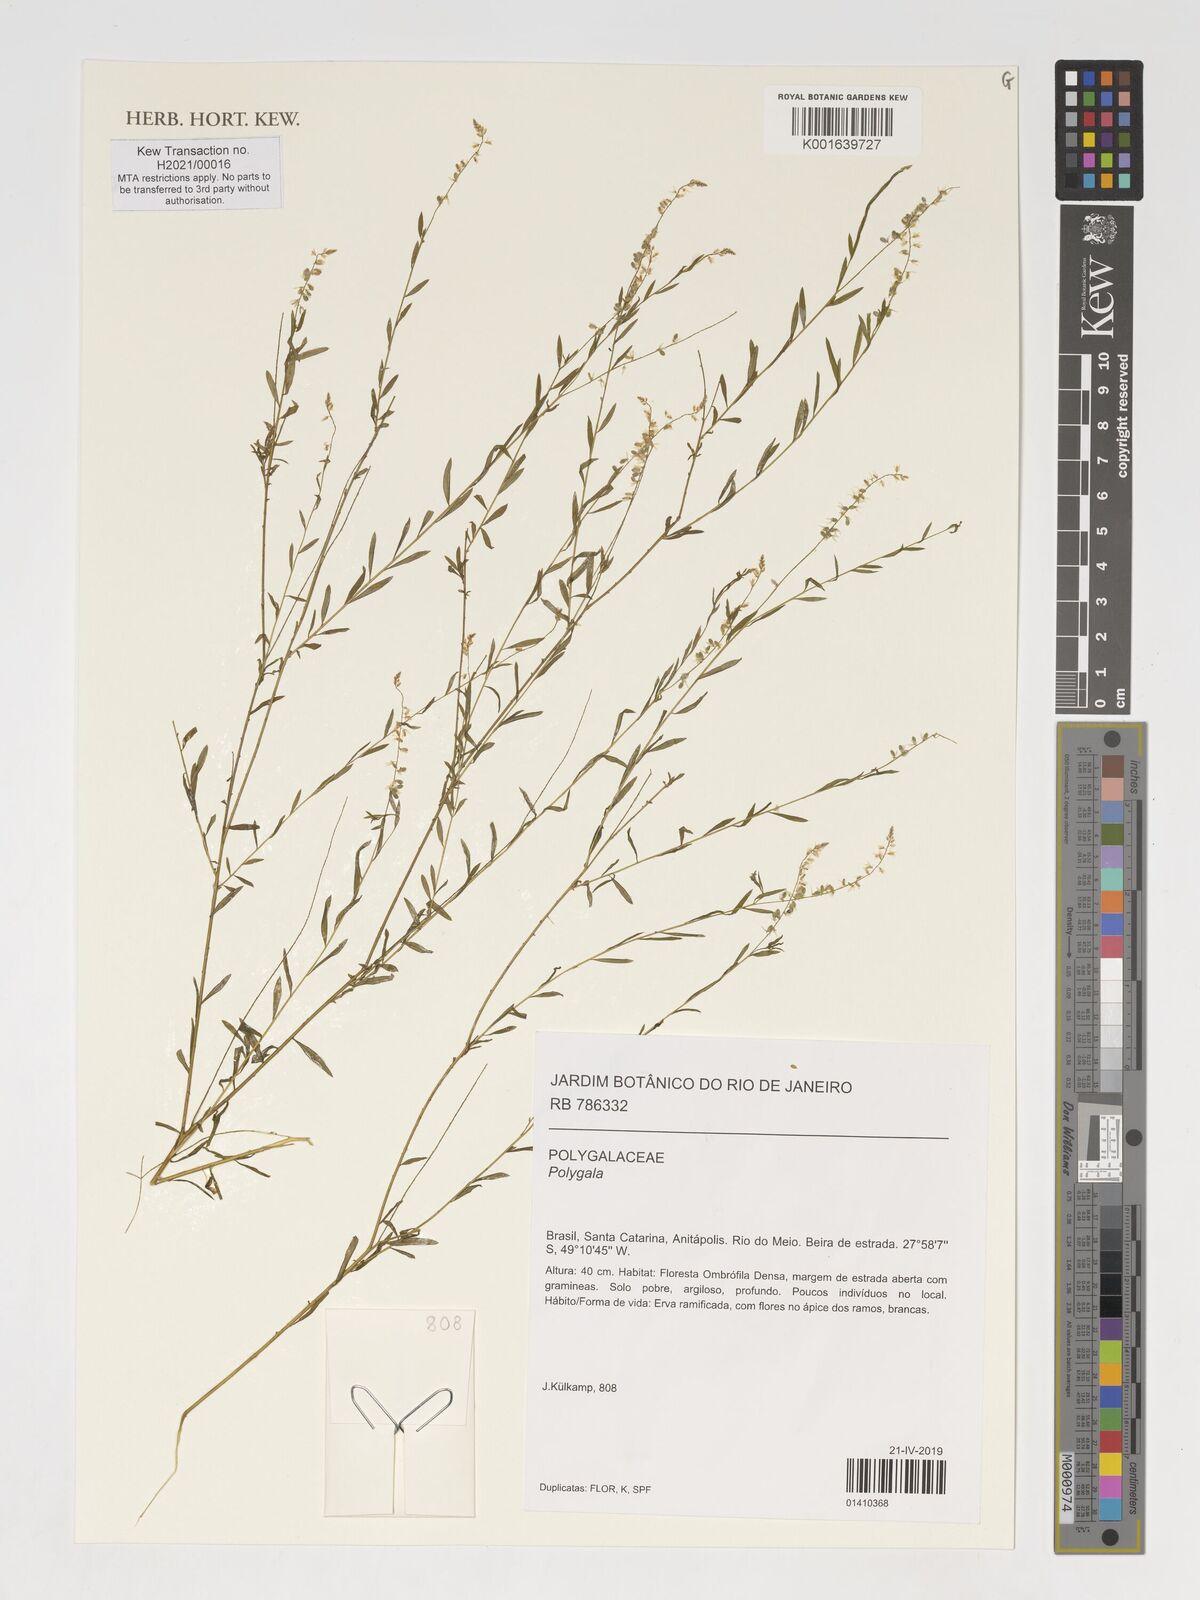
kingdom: Plantae
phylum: Tracheophyta
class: Magnoliopsida
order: Fabales
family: Polygalaceae
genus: Badiera
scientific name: Badiera virgata
